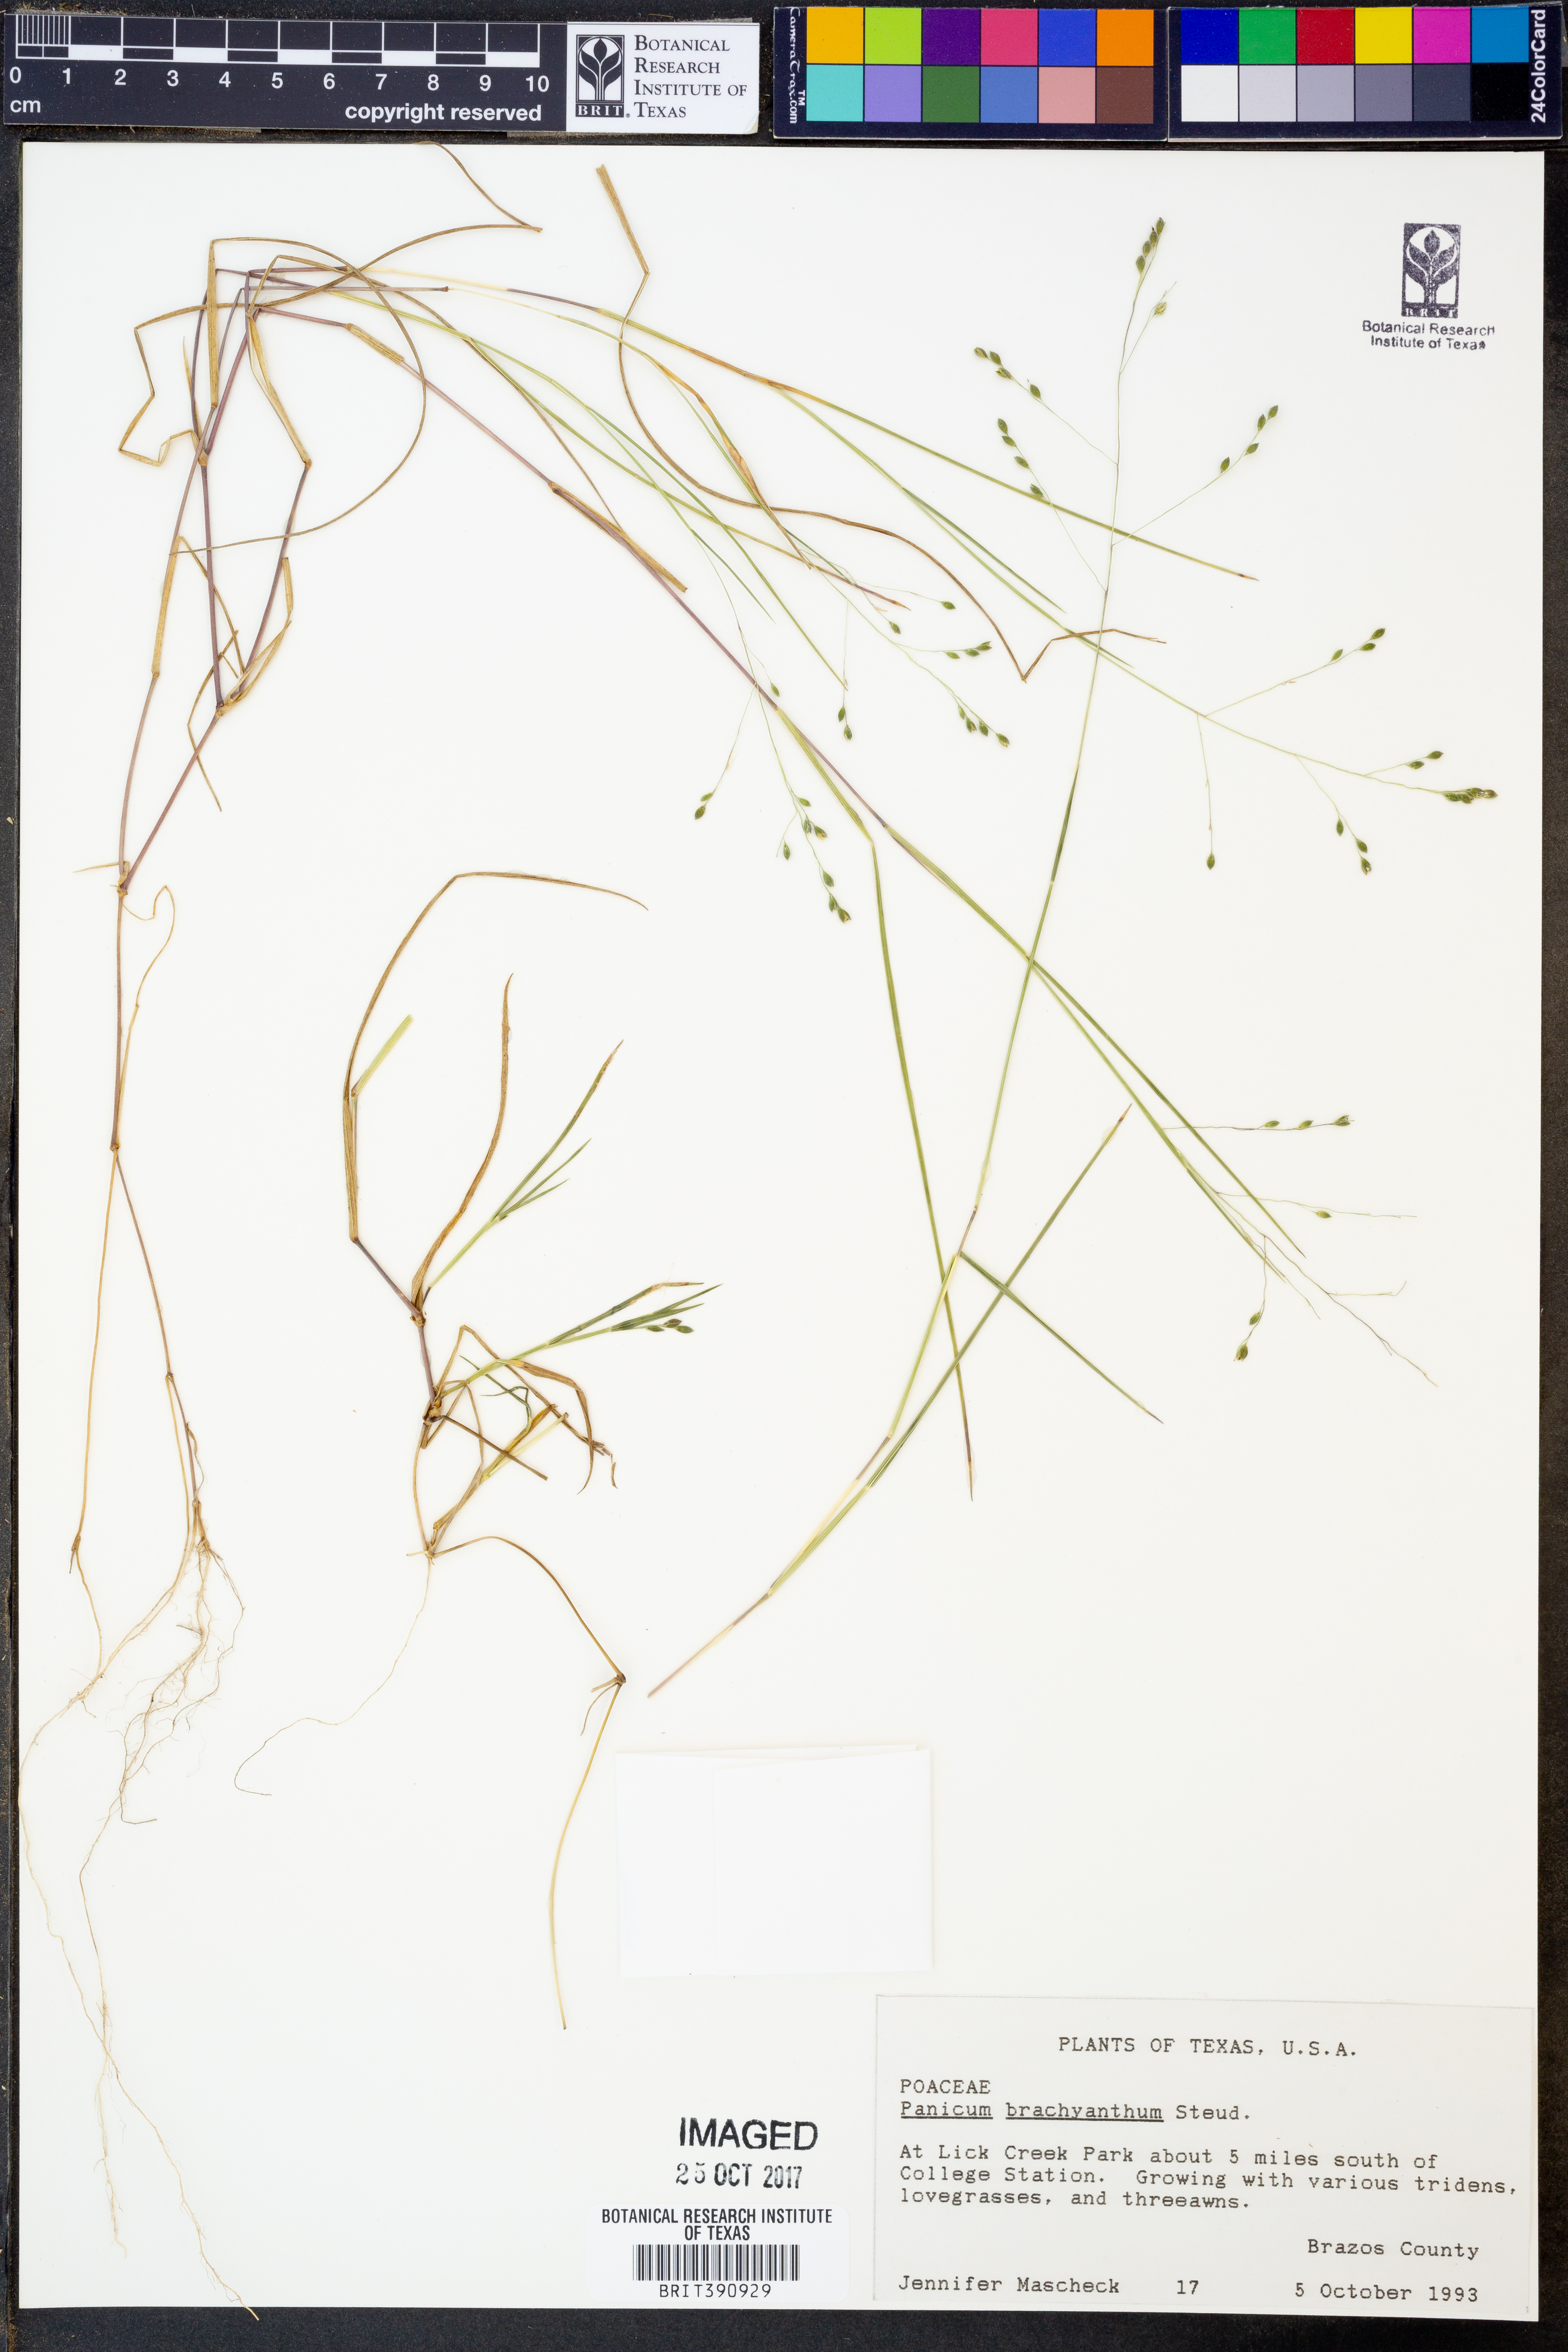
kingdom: Plantae
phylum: Tracheophyta
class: Liliopsida
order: Poales
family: Poaceae
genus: Kellochloa
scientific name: Kellochloa brachyantha
